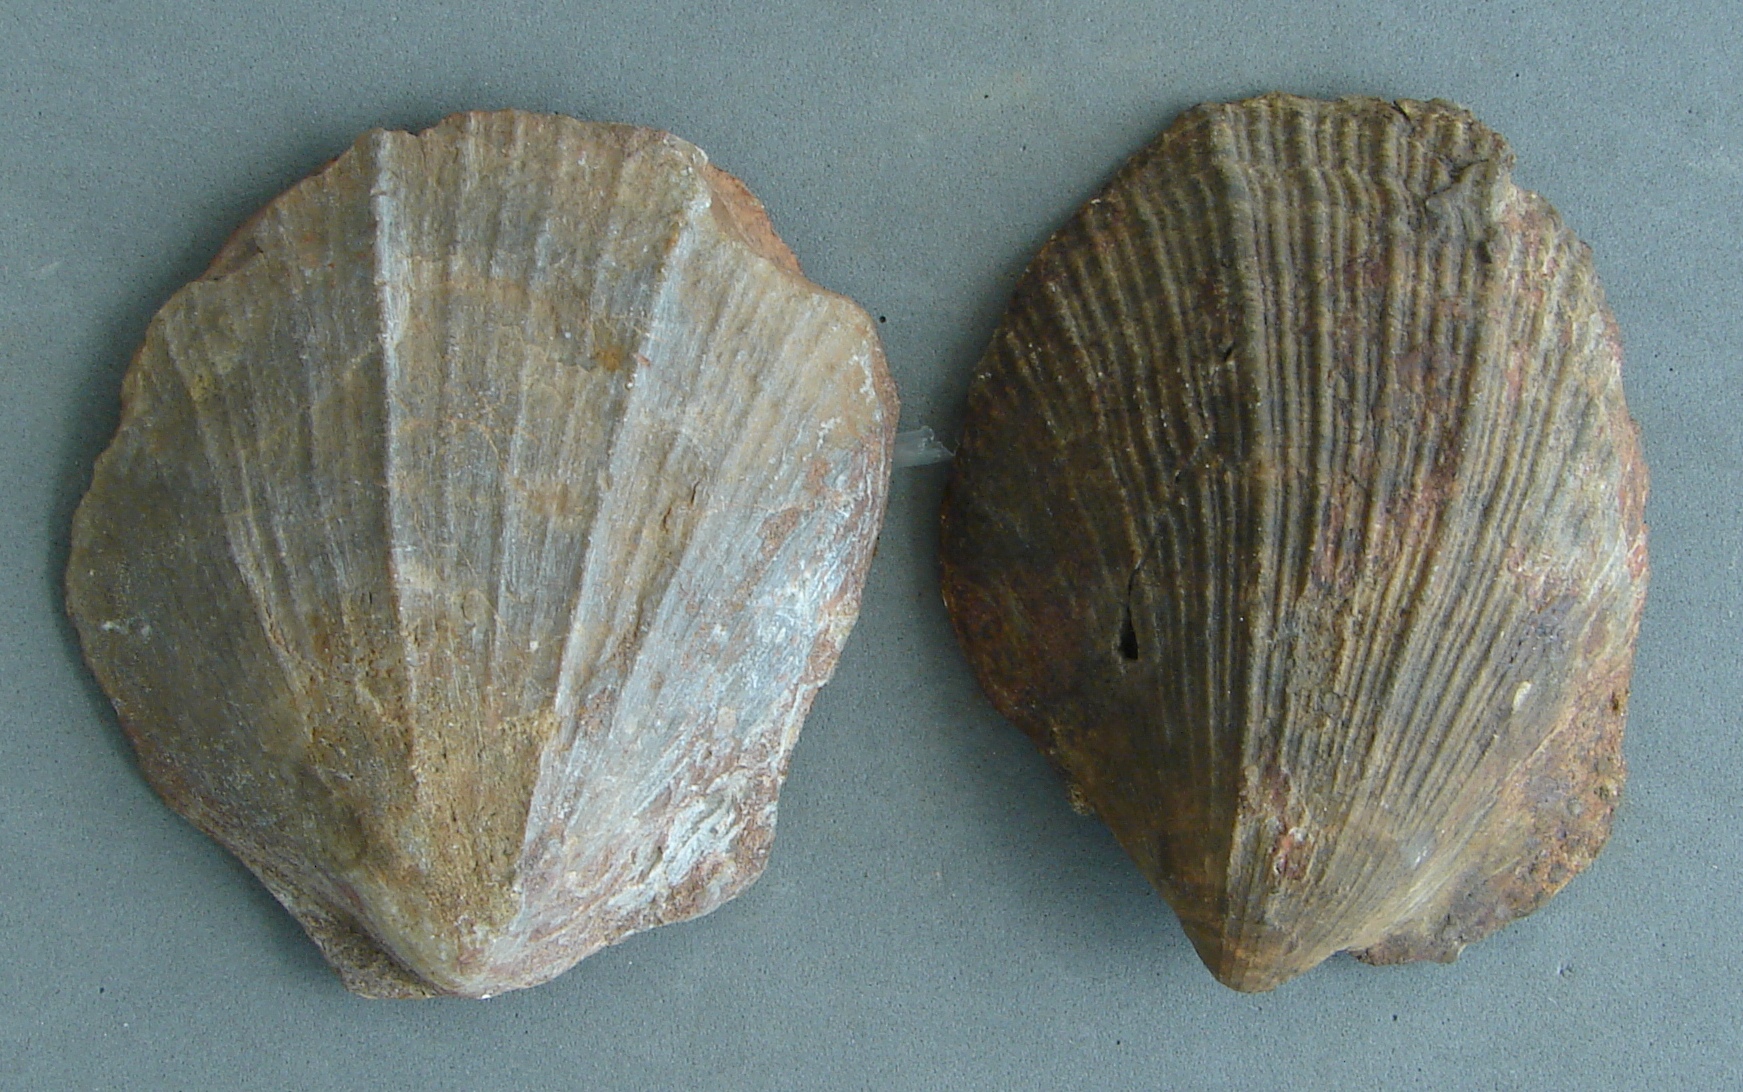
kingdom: Animalia
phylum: Mollusca
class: Bivalvia
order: Pectinida
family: Pectinidae
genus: Velata
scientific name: Velata
